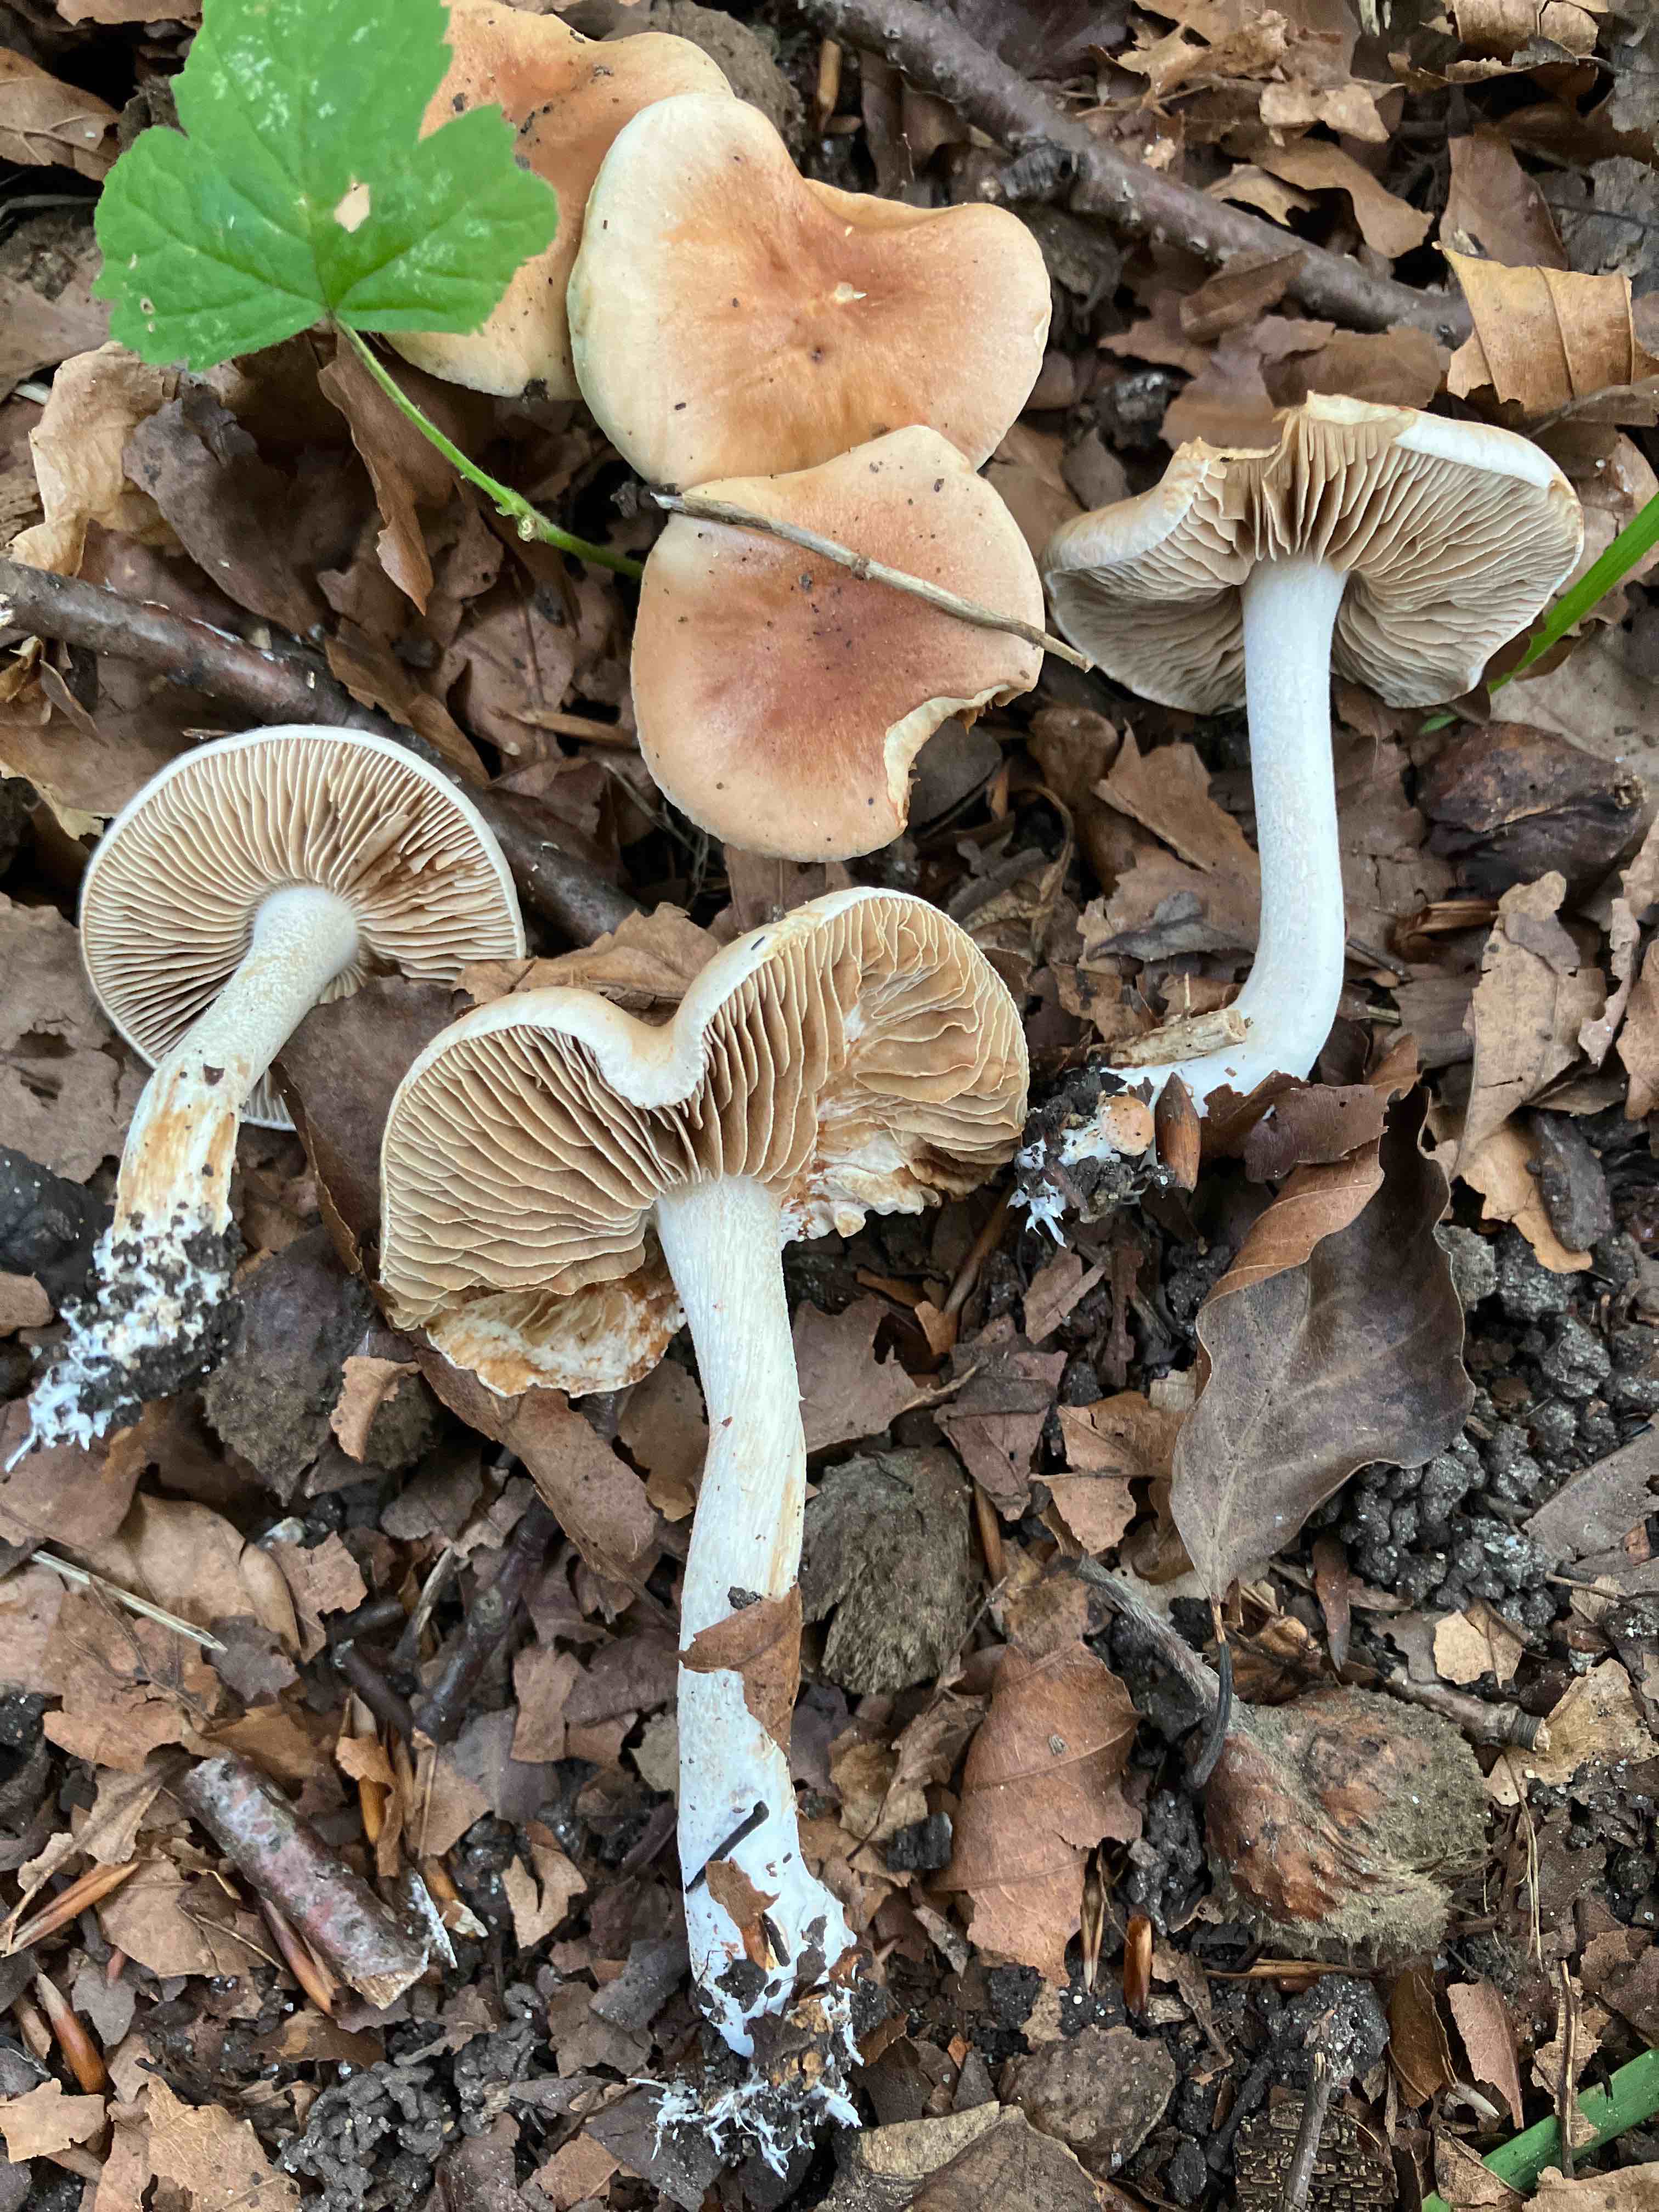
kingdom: Fungi
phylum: Basidiomycota
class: Agaricomycetes
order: Agaricales
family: Hymenogastraceae
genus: Hebeloma
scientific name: Hebeloma
